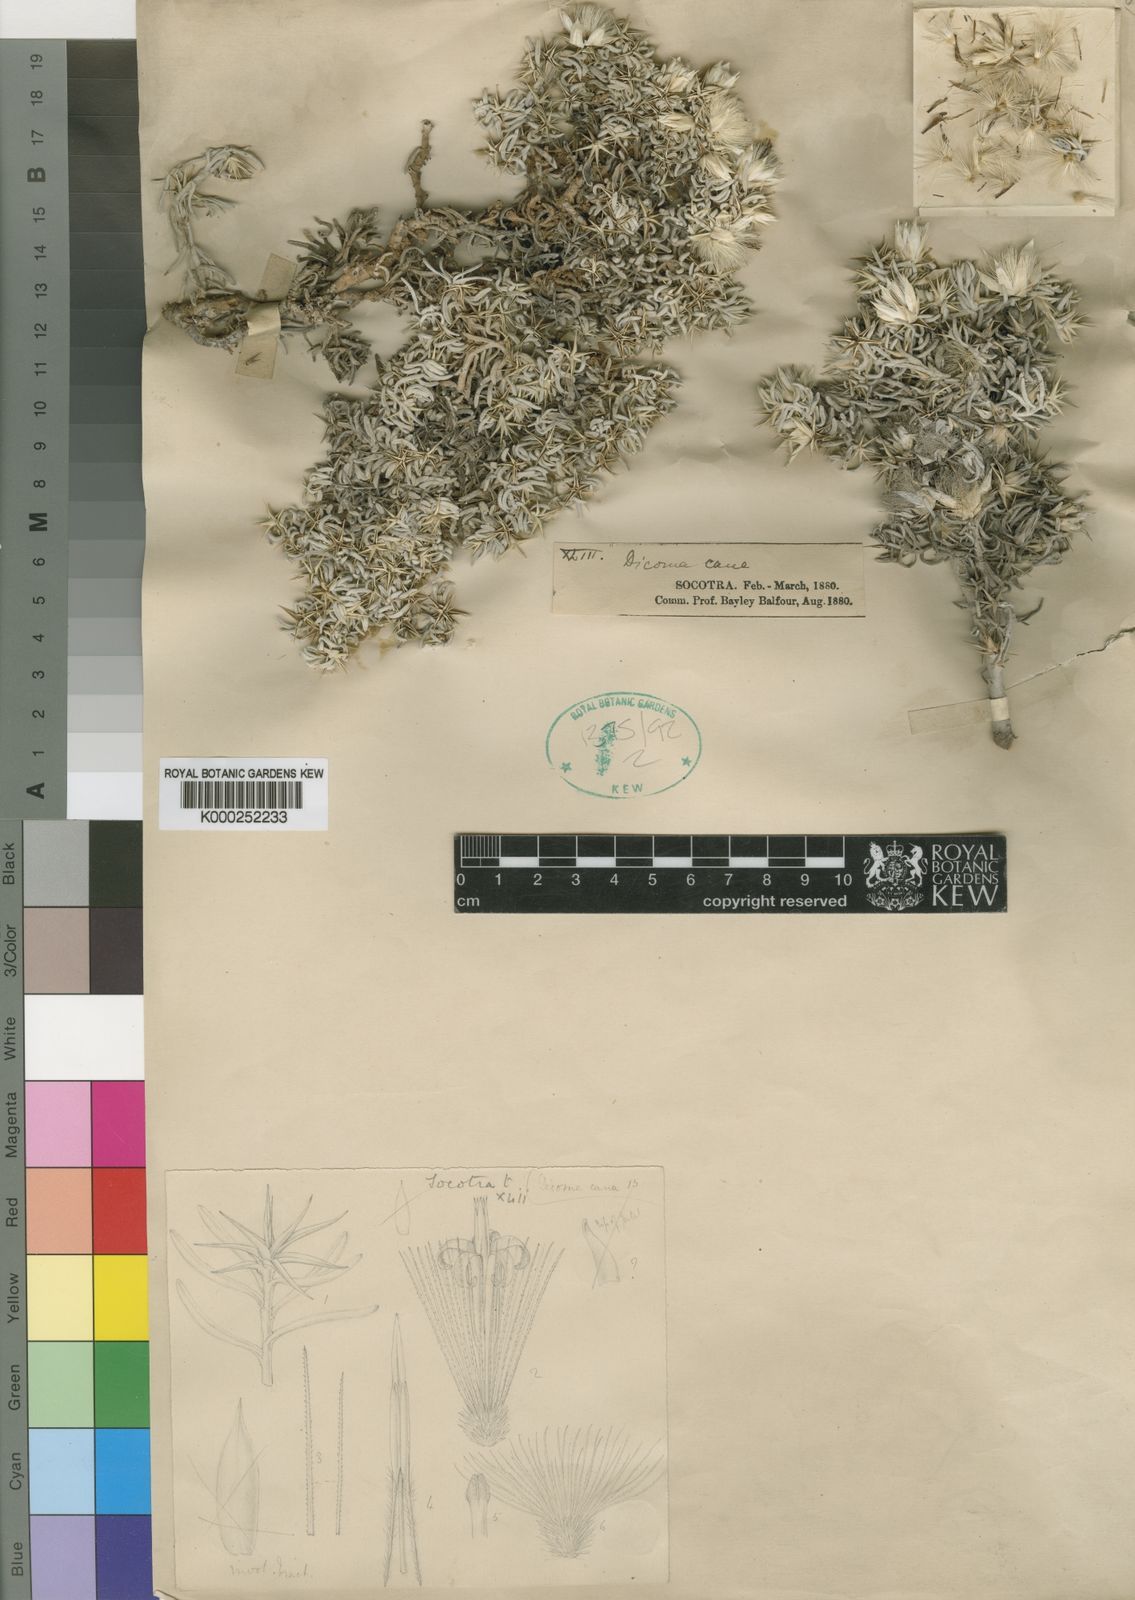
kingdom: Plantae
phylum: Tracheophyta
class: Magnoliopsida
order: Asterales
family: Asteraceae
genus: Macledium
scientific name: Macledium canum
